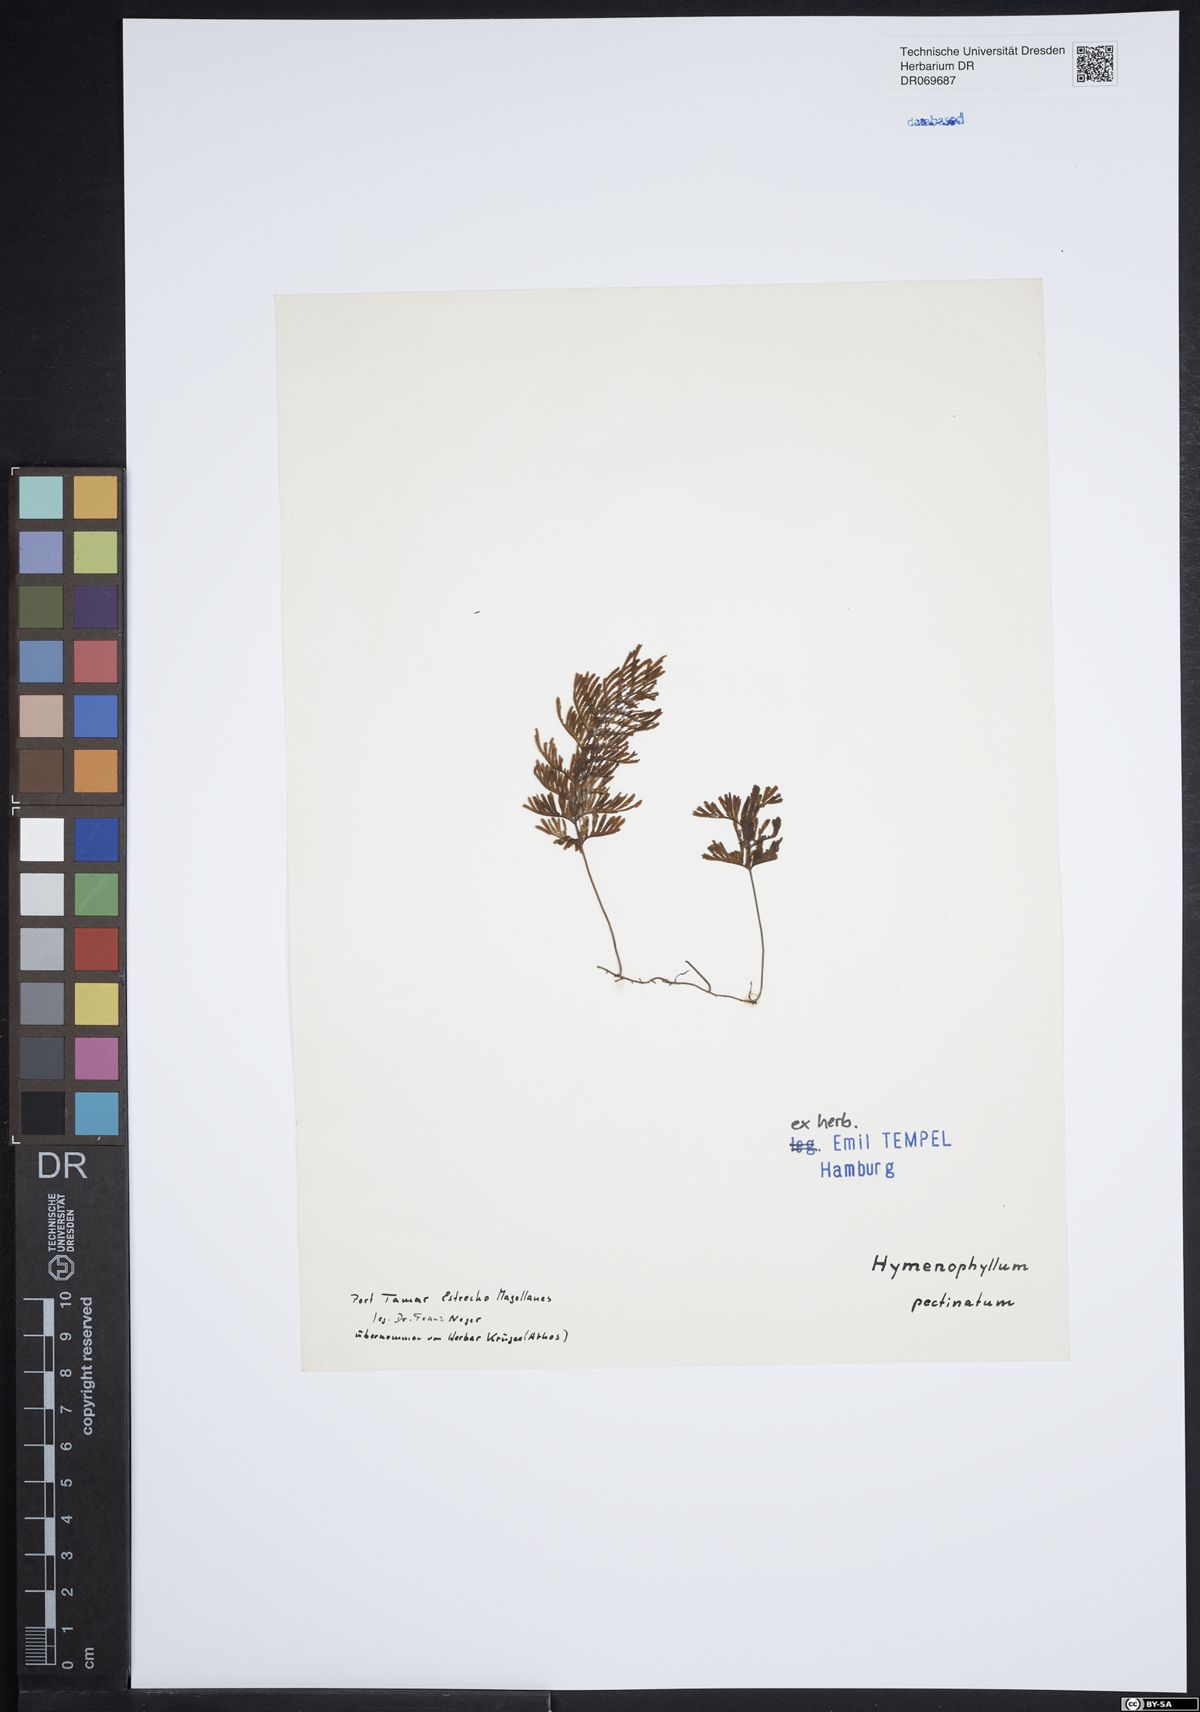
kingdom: Plantae
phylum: Tracheophyta
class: Polypodiopsida
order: Hymenophyllales
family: Hymenophyllaceae
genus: Hymenophyllum
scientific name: Hymenophyllum pectinatum
